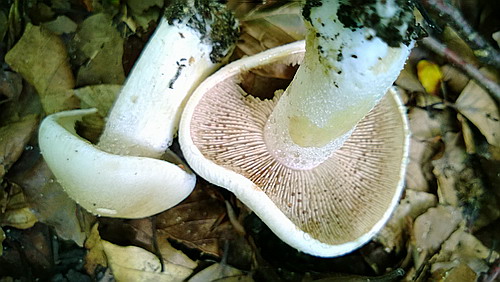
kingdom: Fungi
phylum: Basidiomycota
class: Agaricomycetes
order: Agaricales
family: Hymenogastraceae
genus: Hebeloma
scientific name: Hebeloma crustuliniforme
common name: almindelig tåreblad
